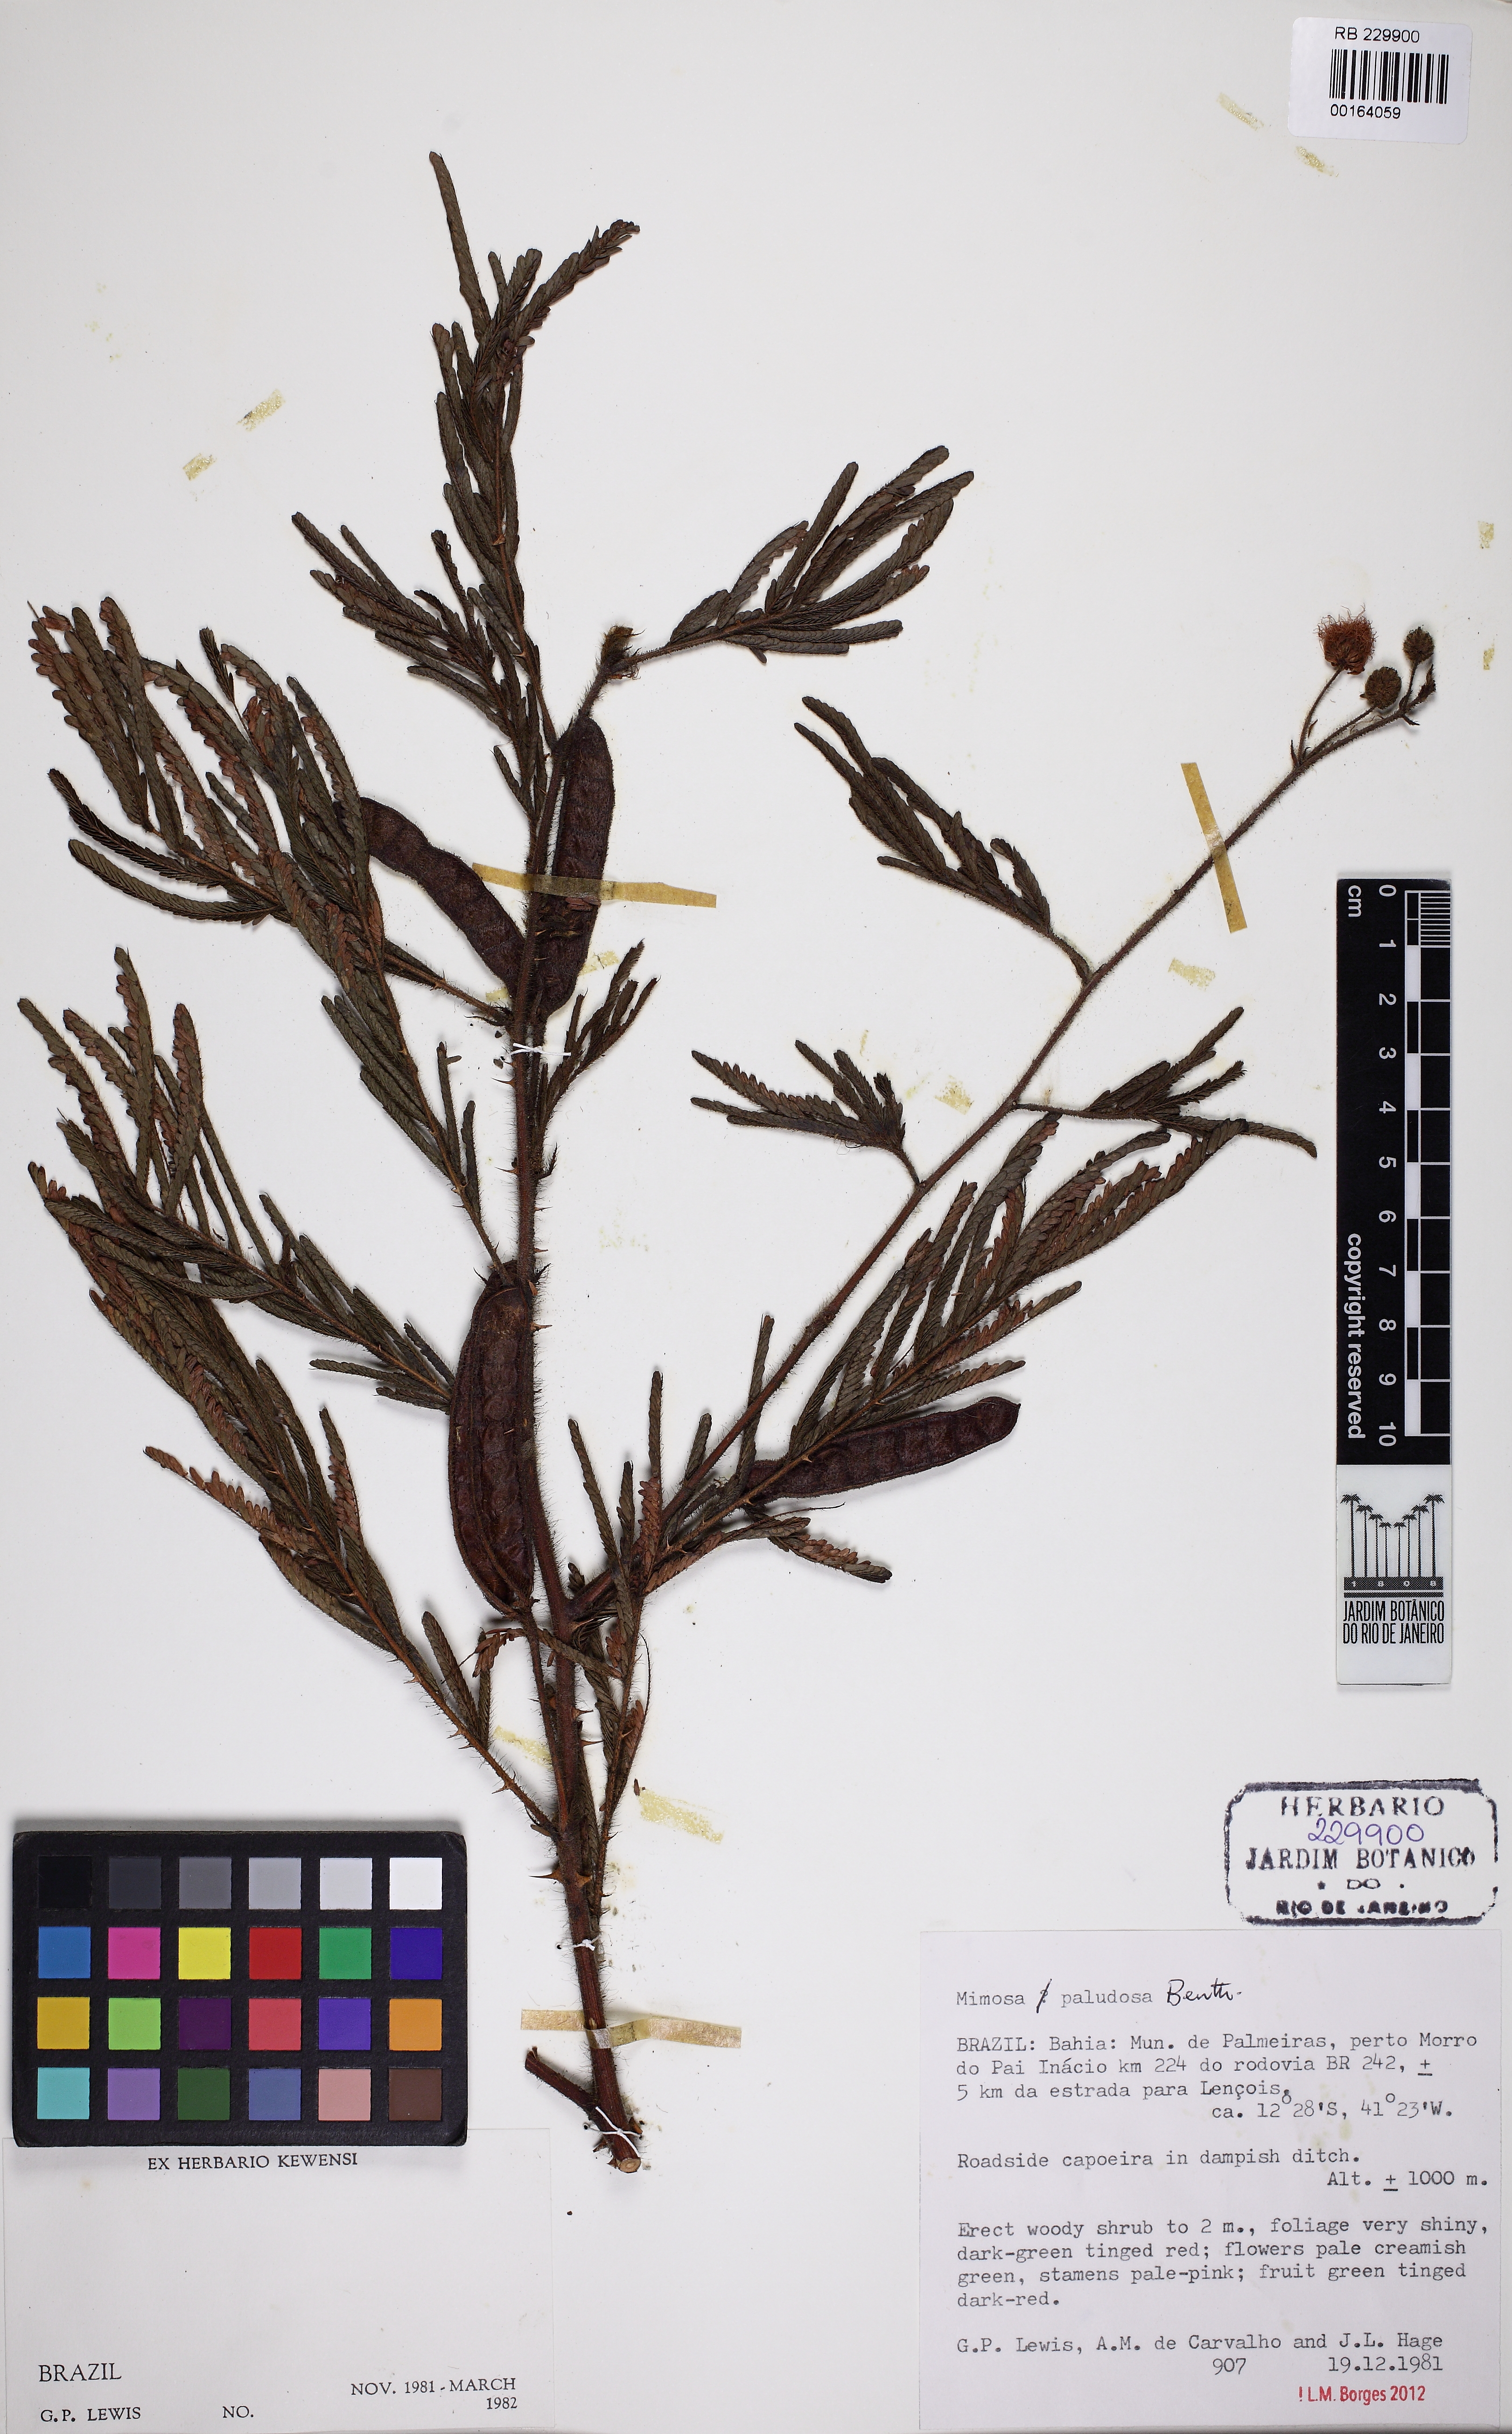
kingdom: Plantae
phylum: Tracheophyta
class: Magnoliopsida
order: Fabales
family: Fabaceae
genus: Mimosa
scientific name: Mimosa paludosa
